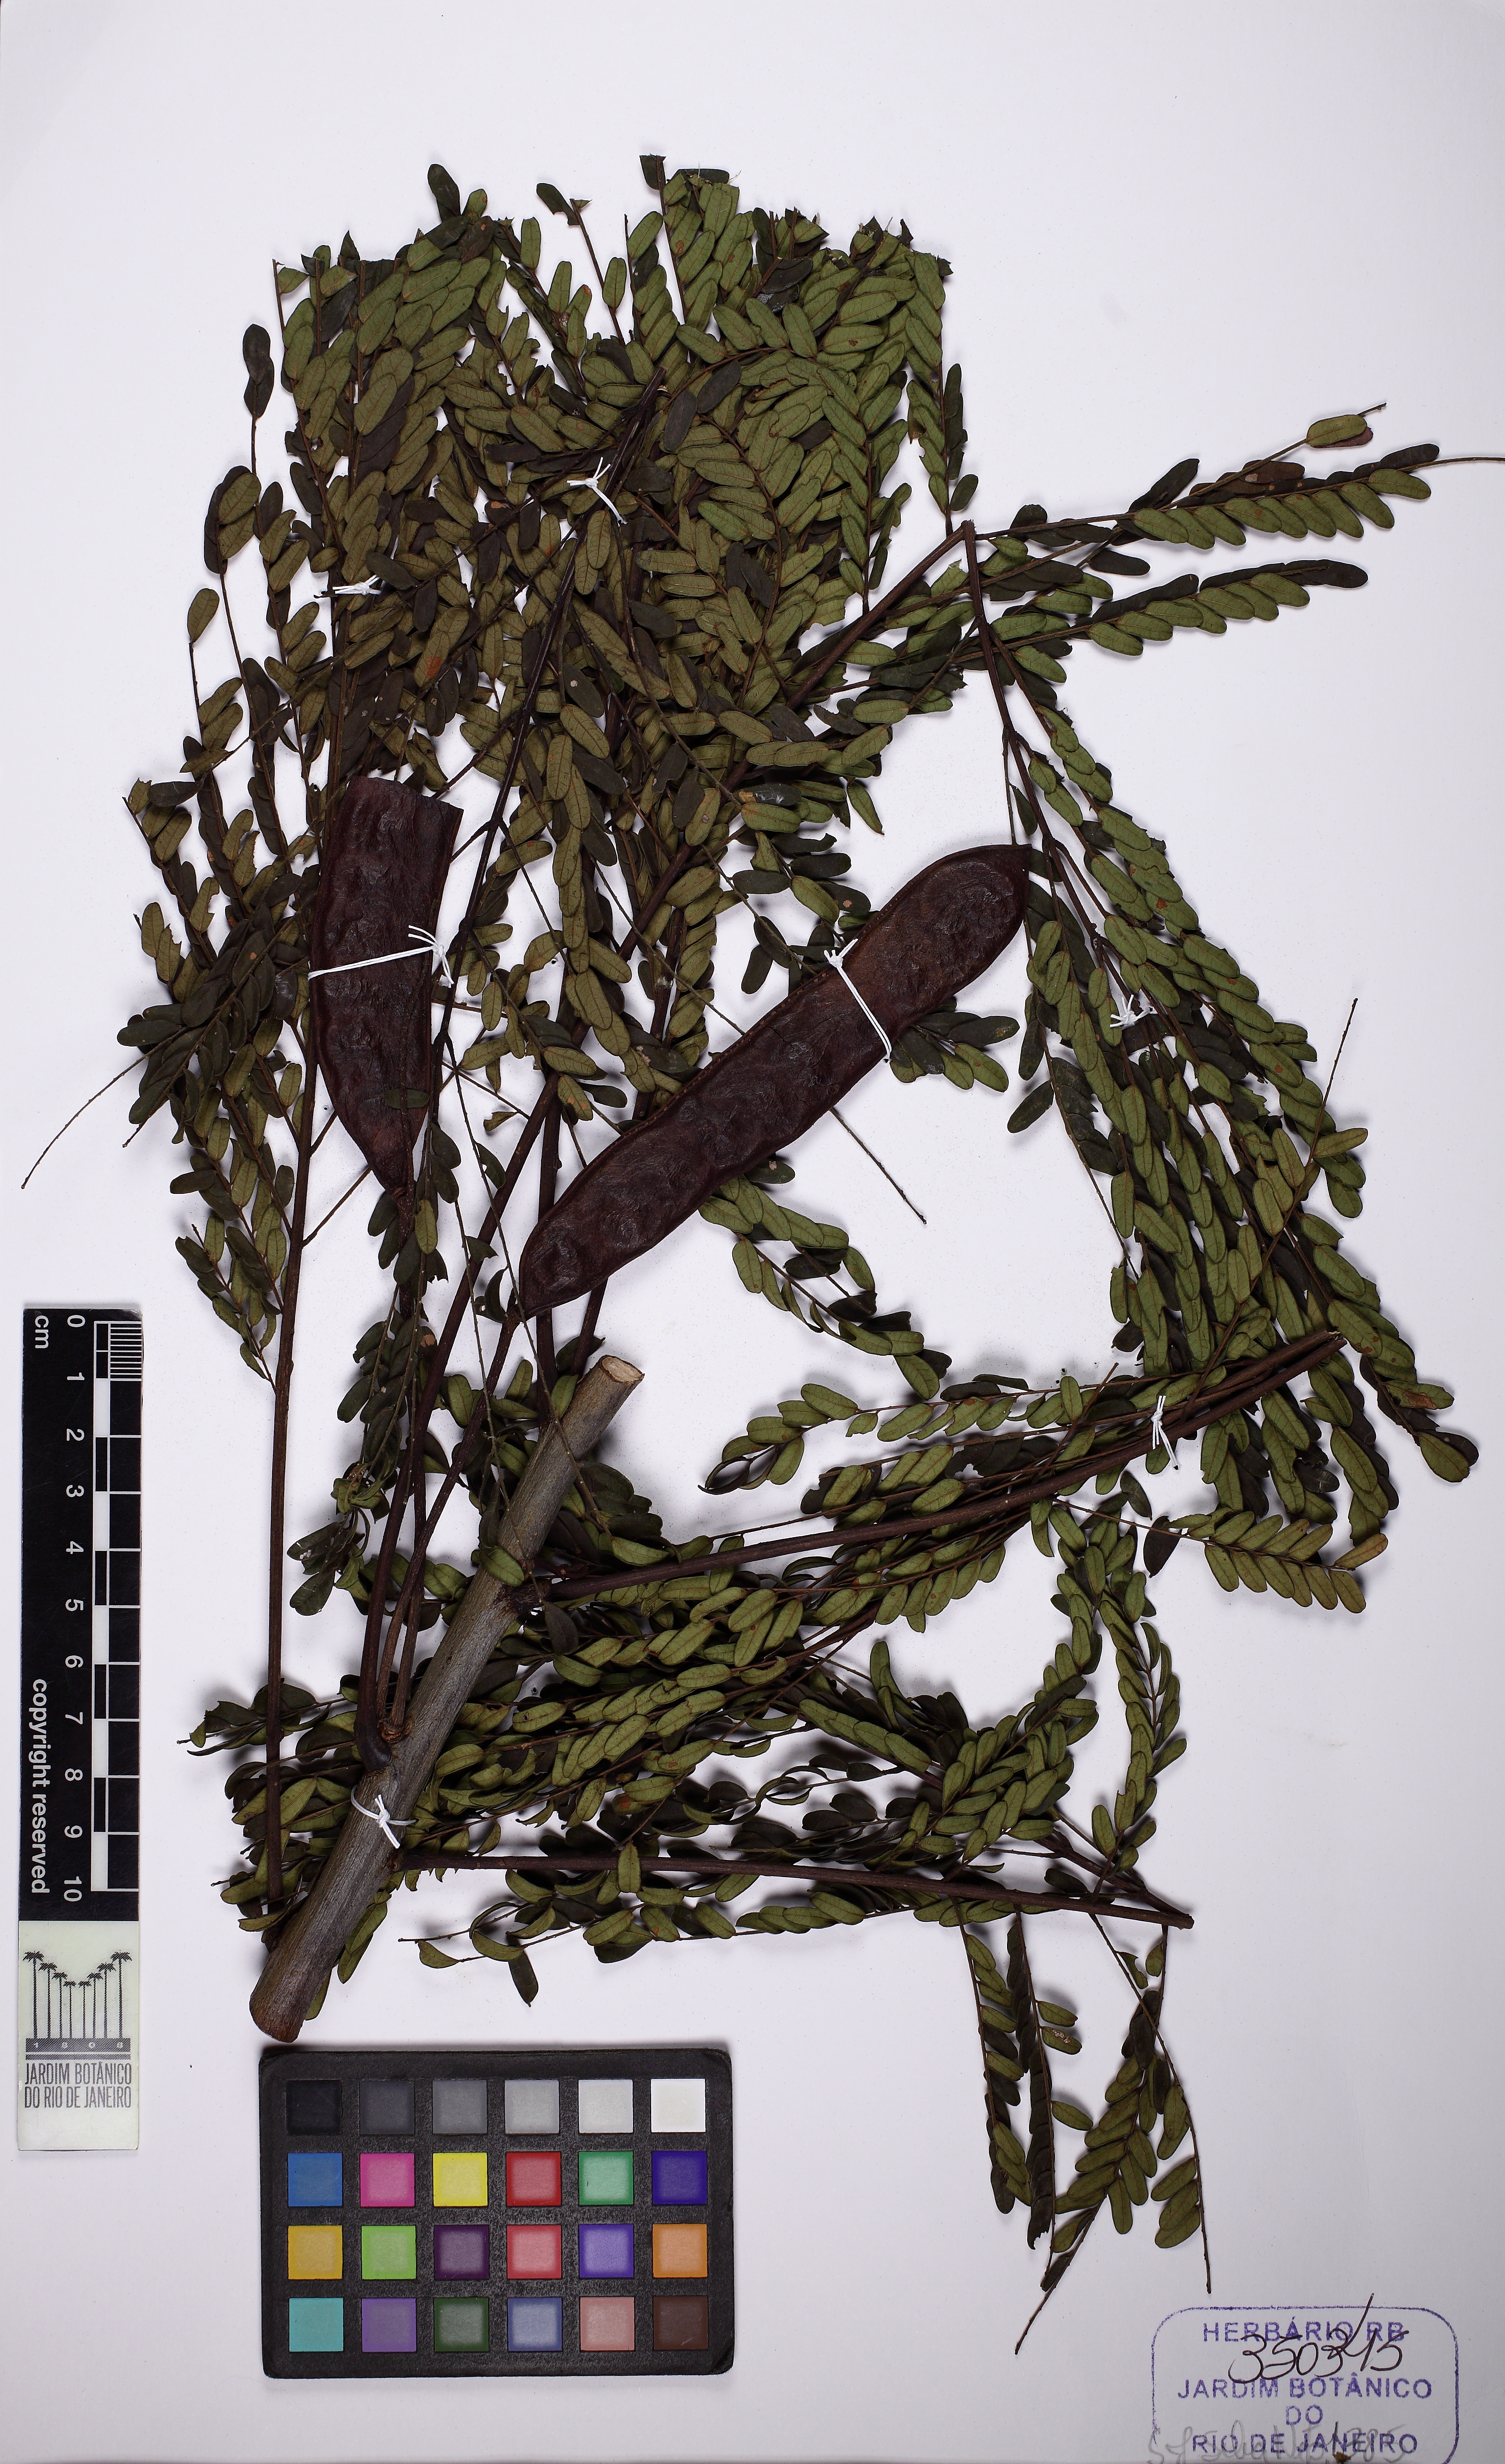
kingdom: Plantae
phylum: Tracheophyta
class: Magnoliopsida
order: Fabales
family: Fabaceae
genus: Stryphnodendron
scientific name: Stryphnodendron polyphyllum
